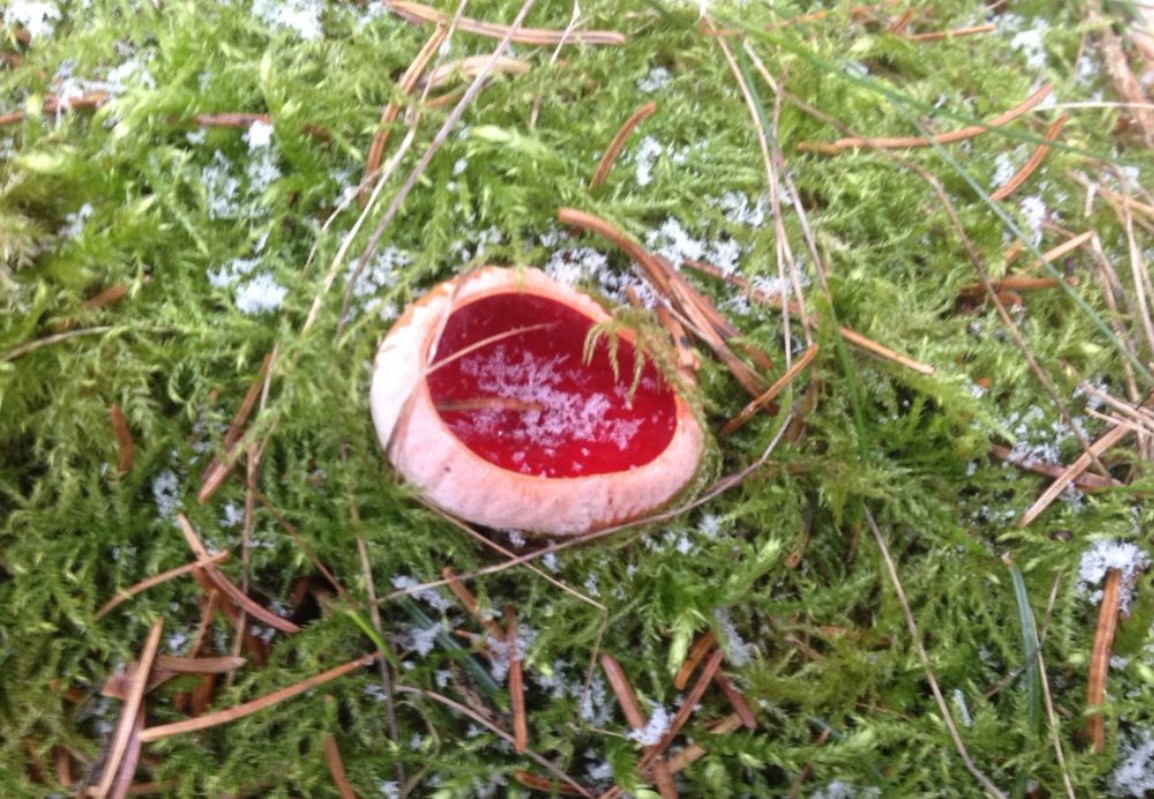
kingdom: Fungi
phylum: Ascomycota
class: Pezizomycetes
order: Pezizales
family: Sarcoscyphaceae
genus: Sarcoscypha
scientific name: Sarcoscypha austriaca
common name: krølhåret pragtbæger
